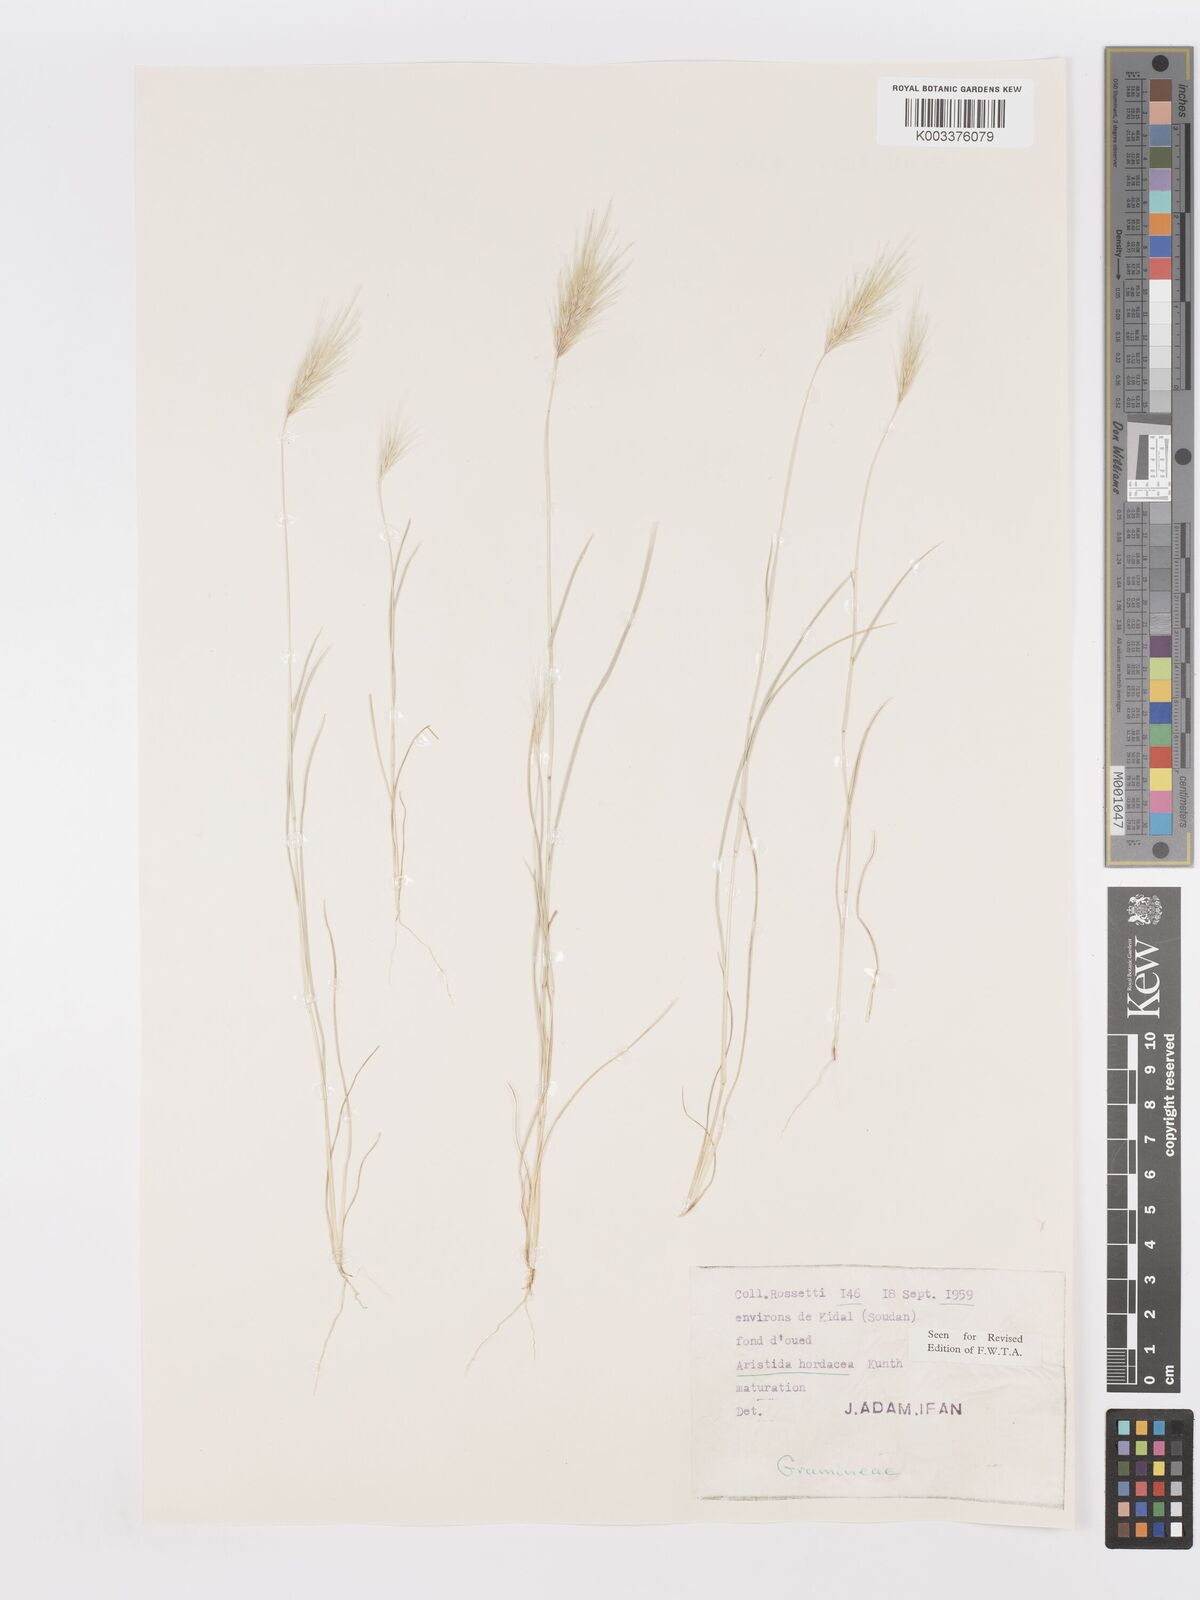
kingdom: Plantae
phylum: Tracheophyta
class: Liliopsida
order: Poales
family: Poaceae
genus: Aristida
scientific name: Aristida hordeacea
